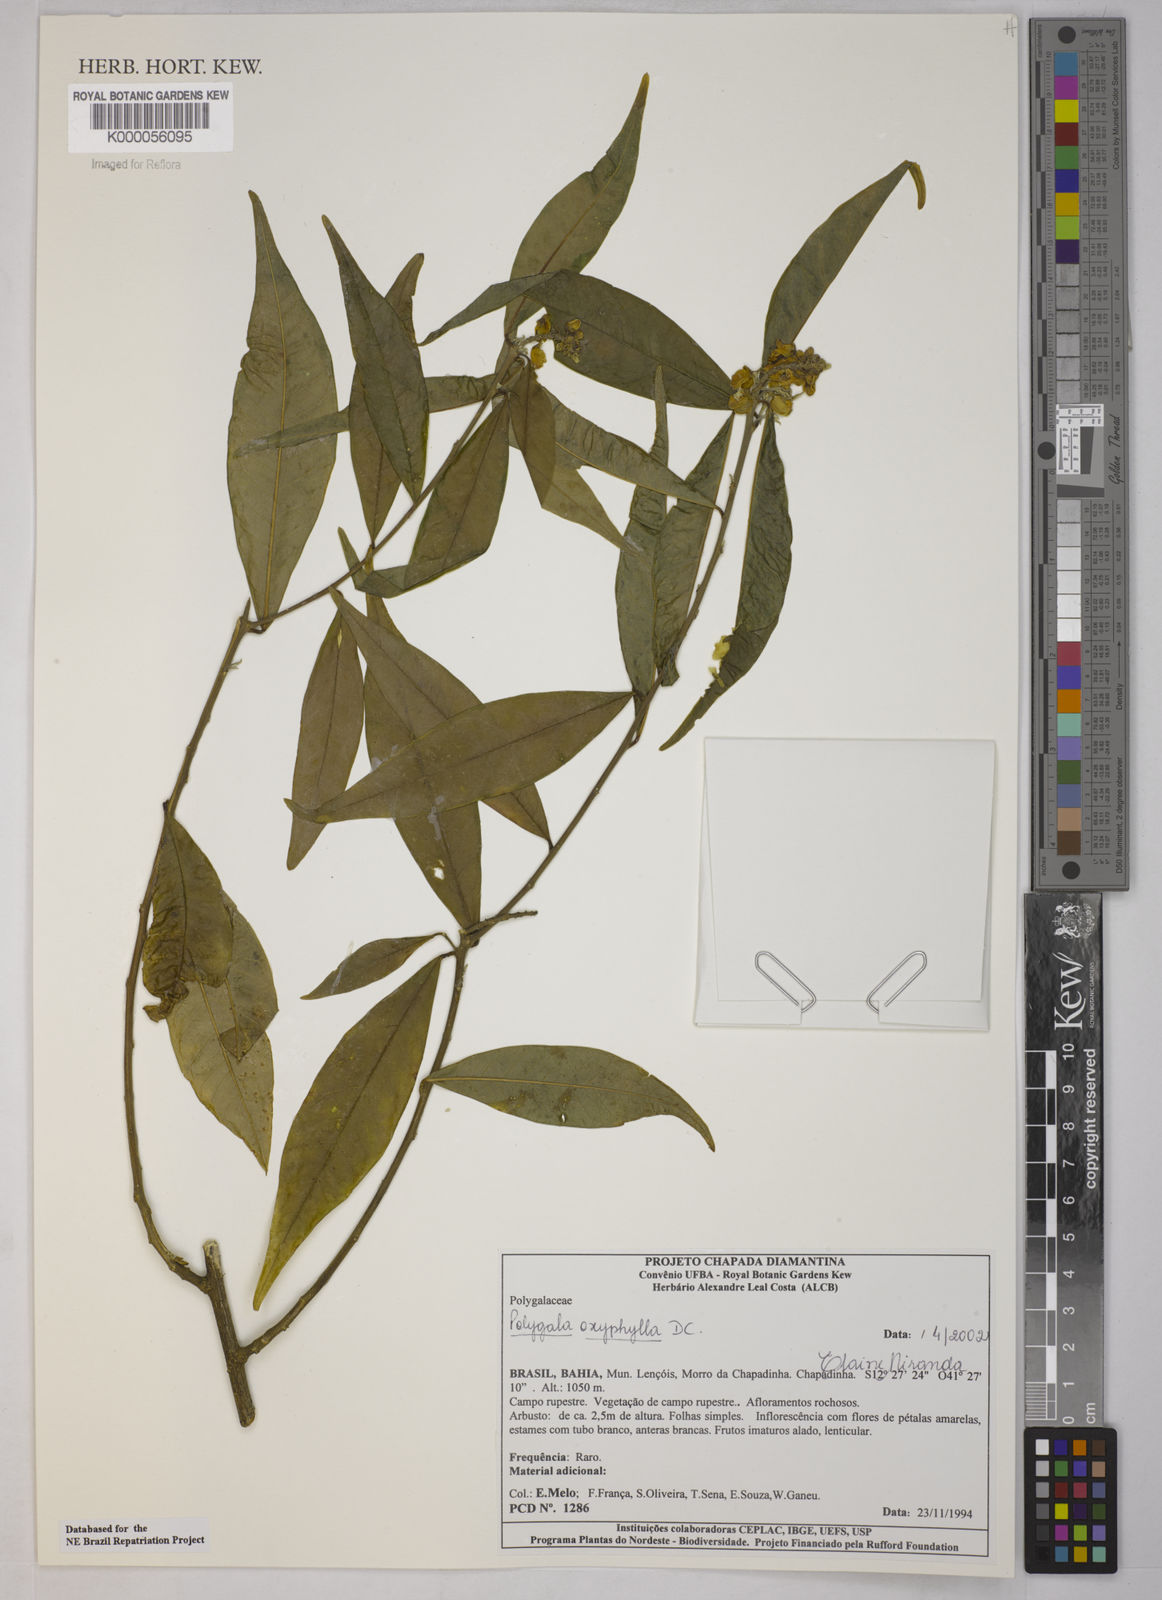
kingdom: Plantae
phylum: Tracheophyta
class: Magnoliopsida
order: Fabales
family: Polygalaceae
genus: Caamembeca
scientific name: Caamembeca oxyphylla
